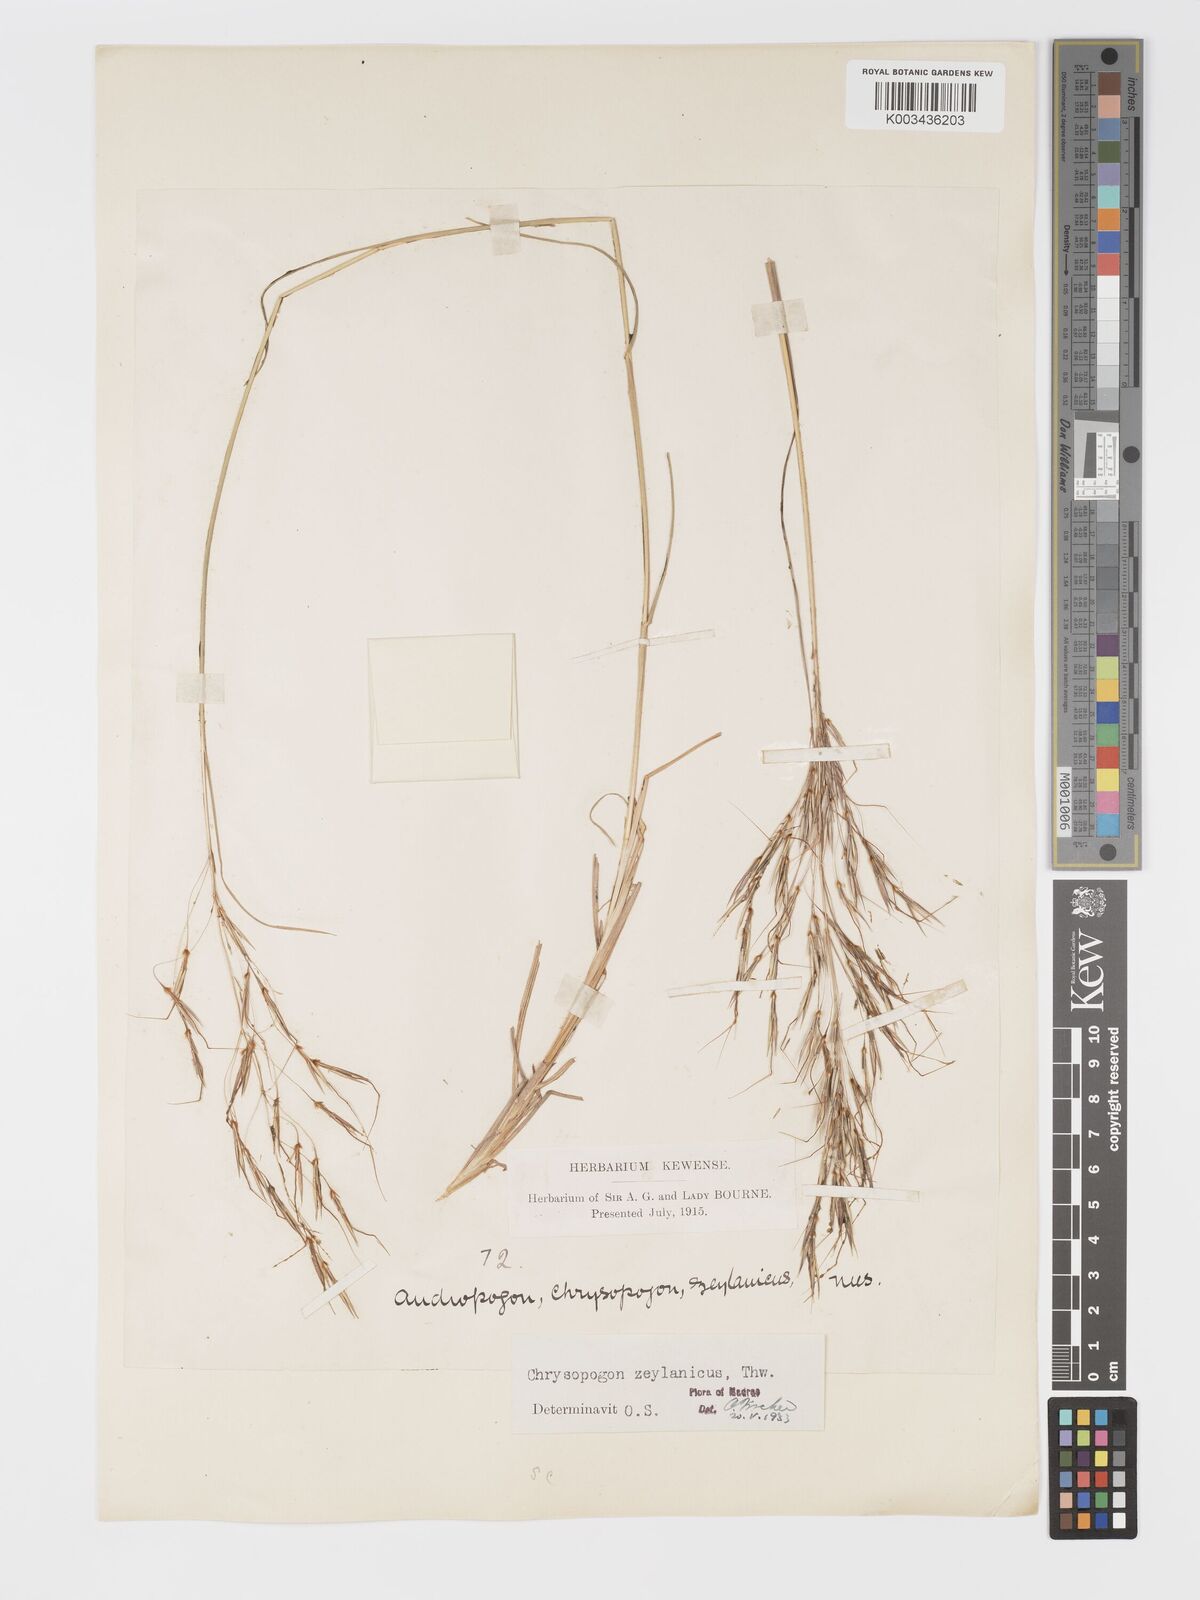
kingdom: Plantae
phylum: Tracheophyta
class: Liliopsida
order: Poales
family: Poaceae
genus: Chrysopogon
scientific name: Chrysopogon nodulibarbis
